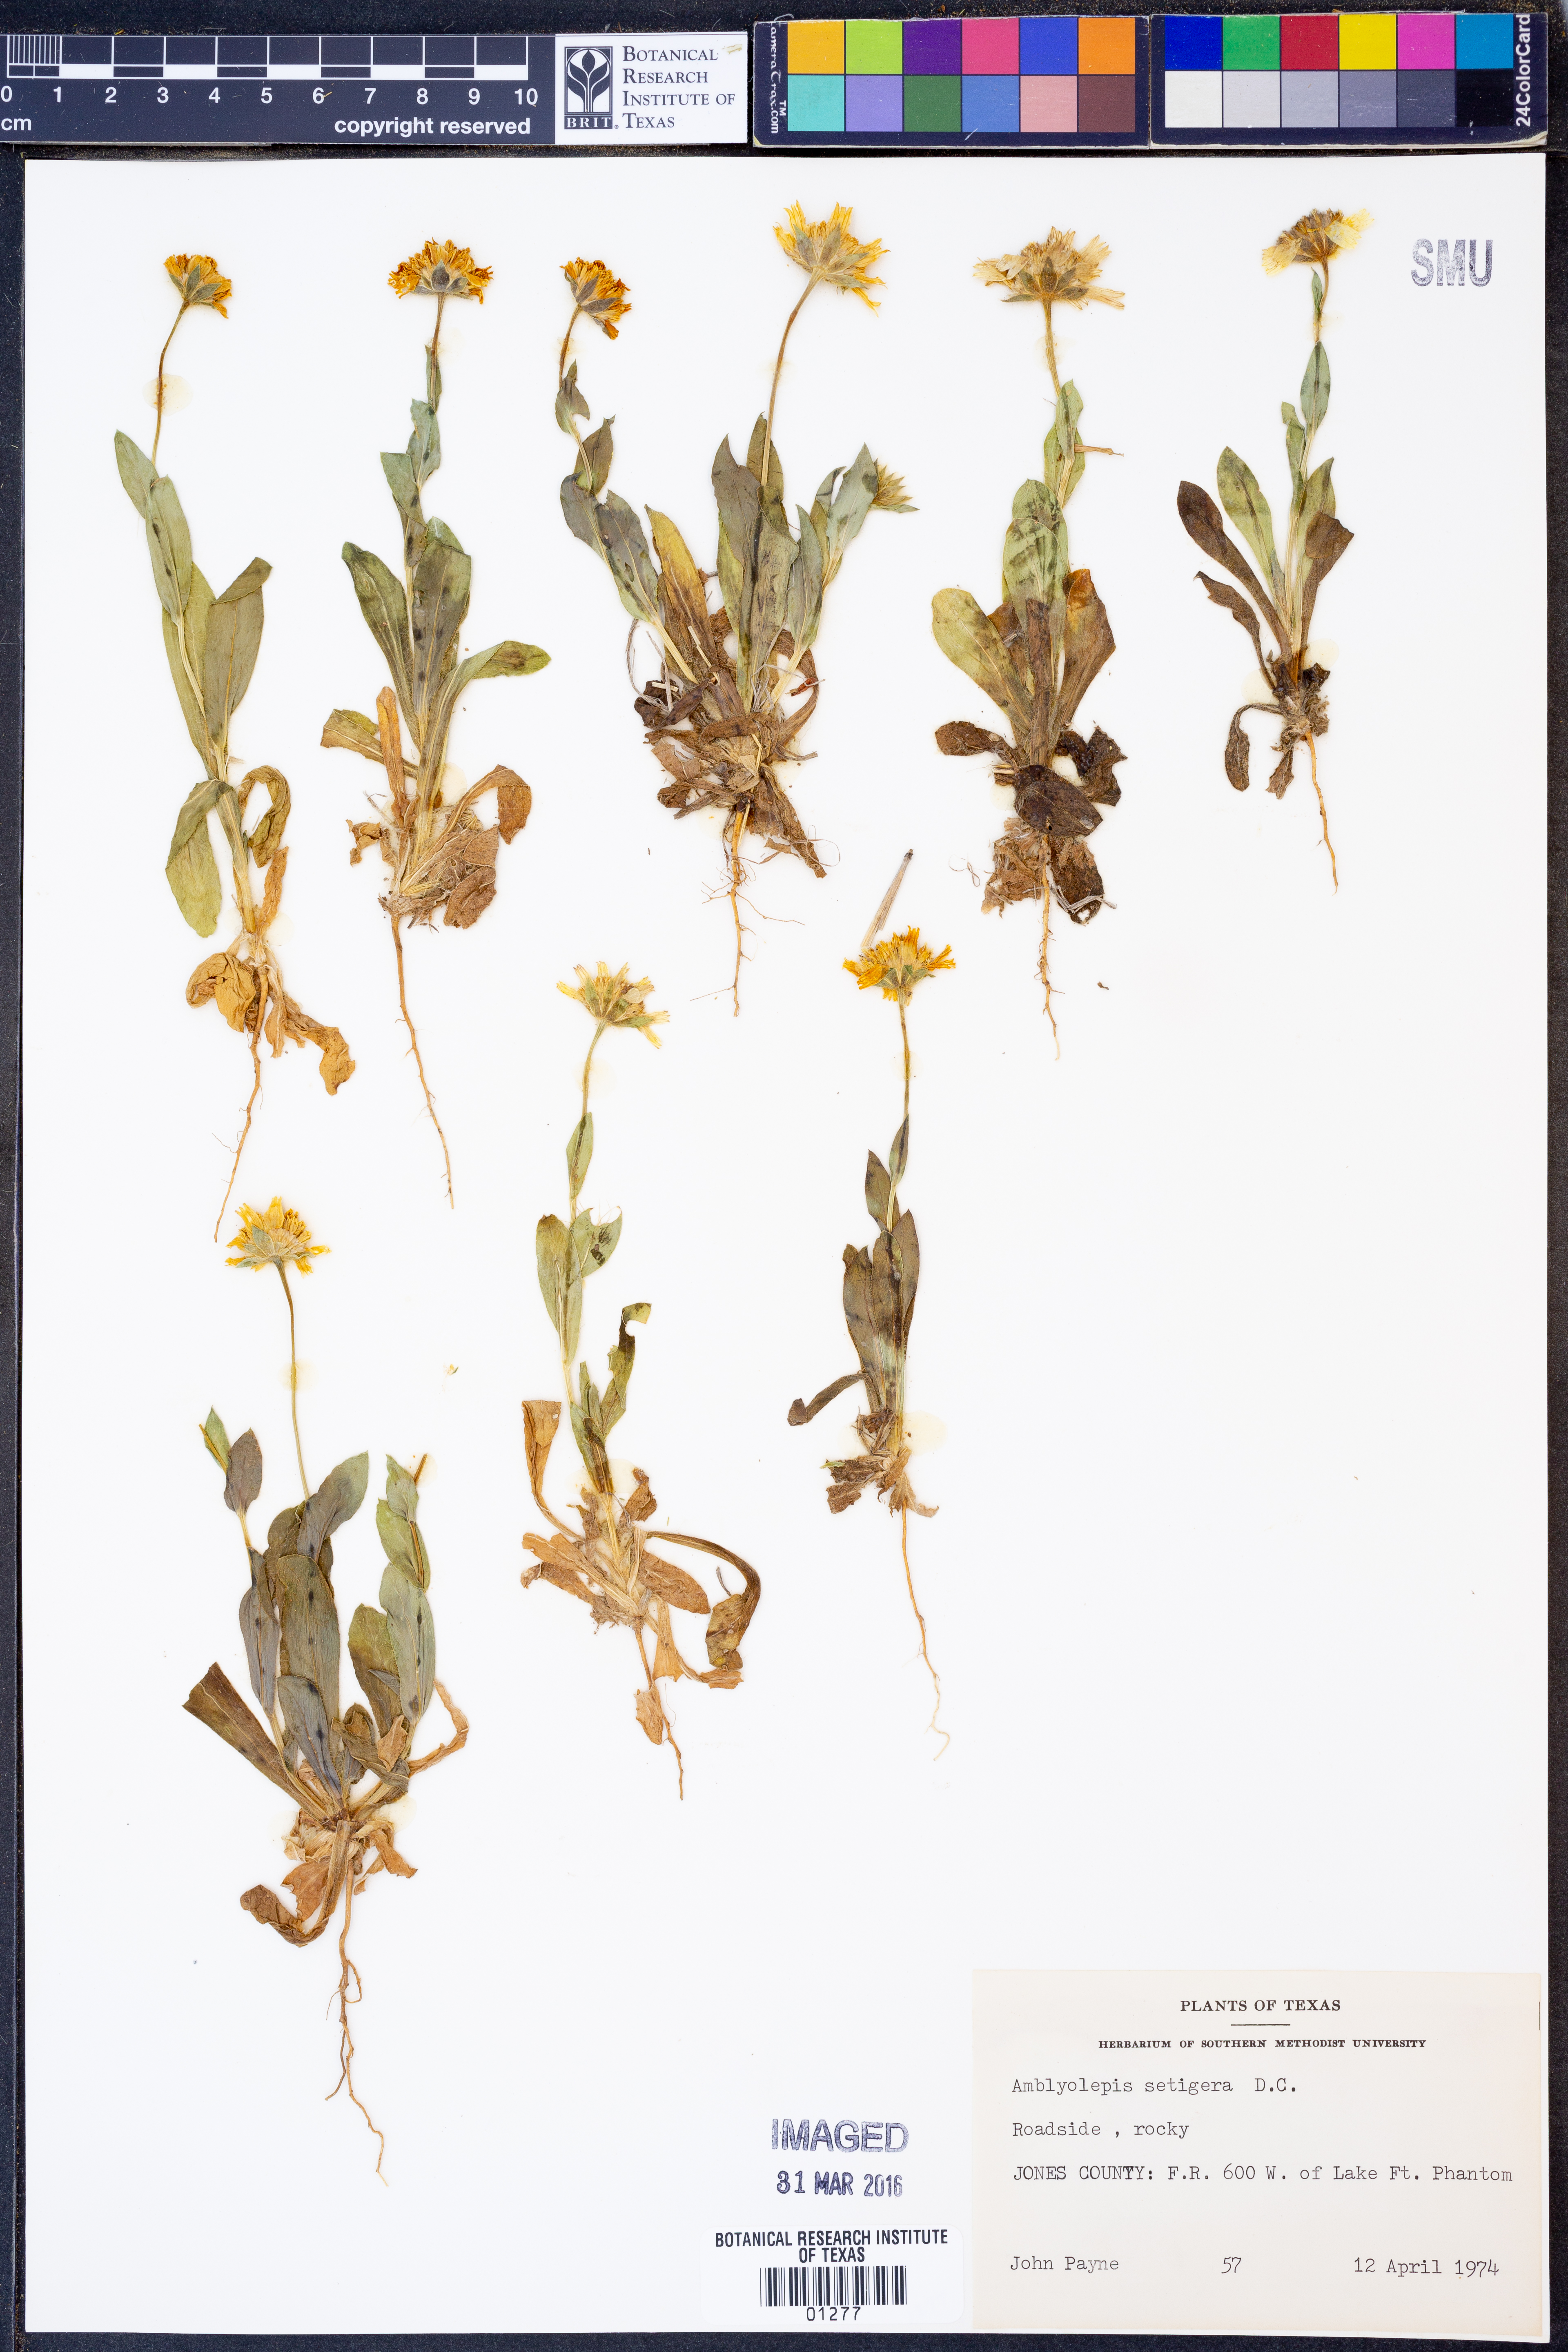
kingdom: Plantae
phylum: Tracheophyta
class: Magnoliopsida
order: Asterales
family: Asteraceae
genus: Amblyolepis
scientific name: Amblyolepis setigera
